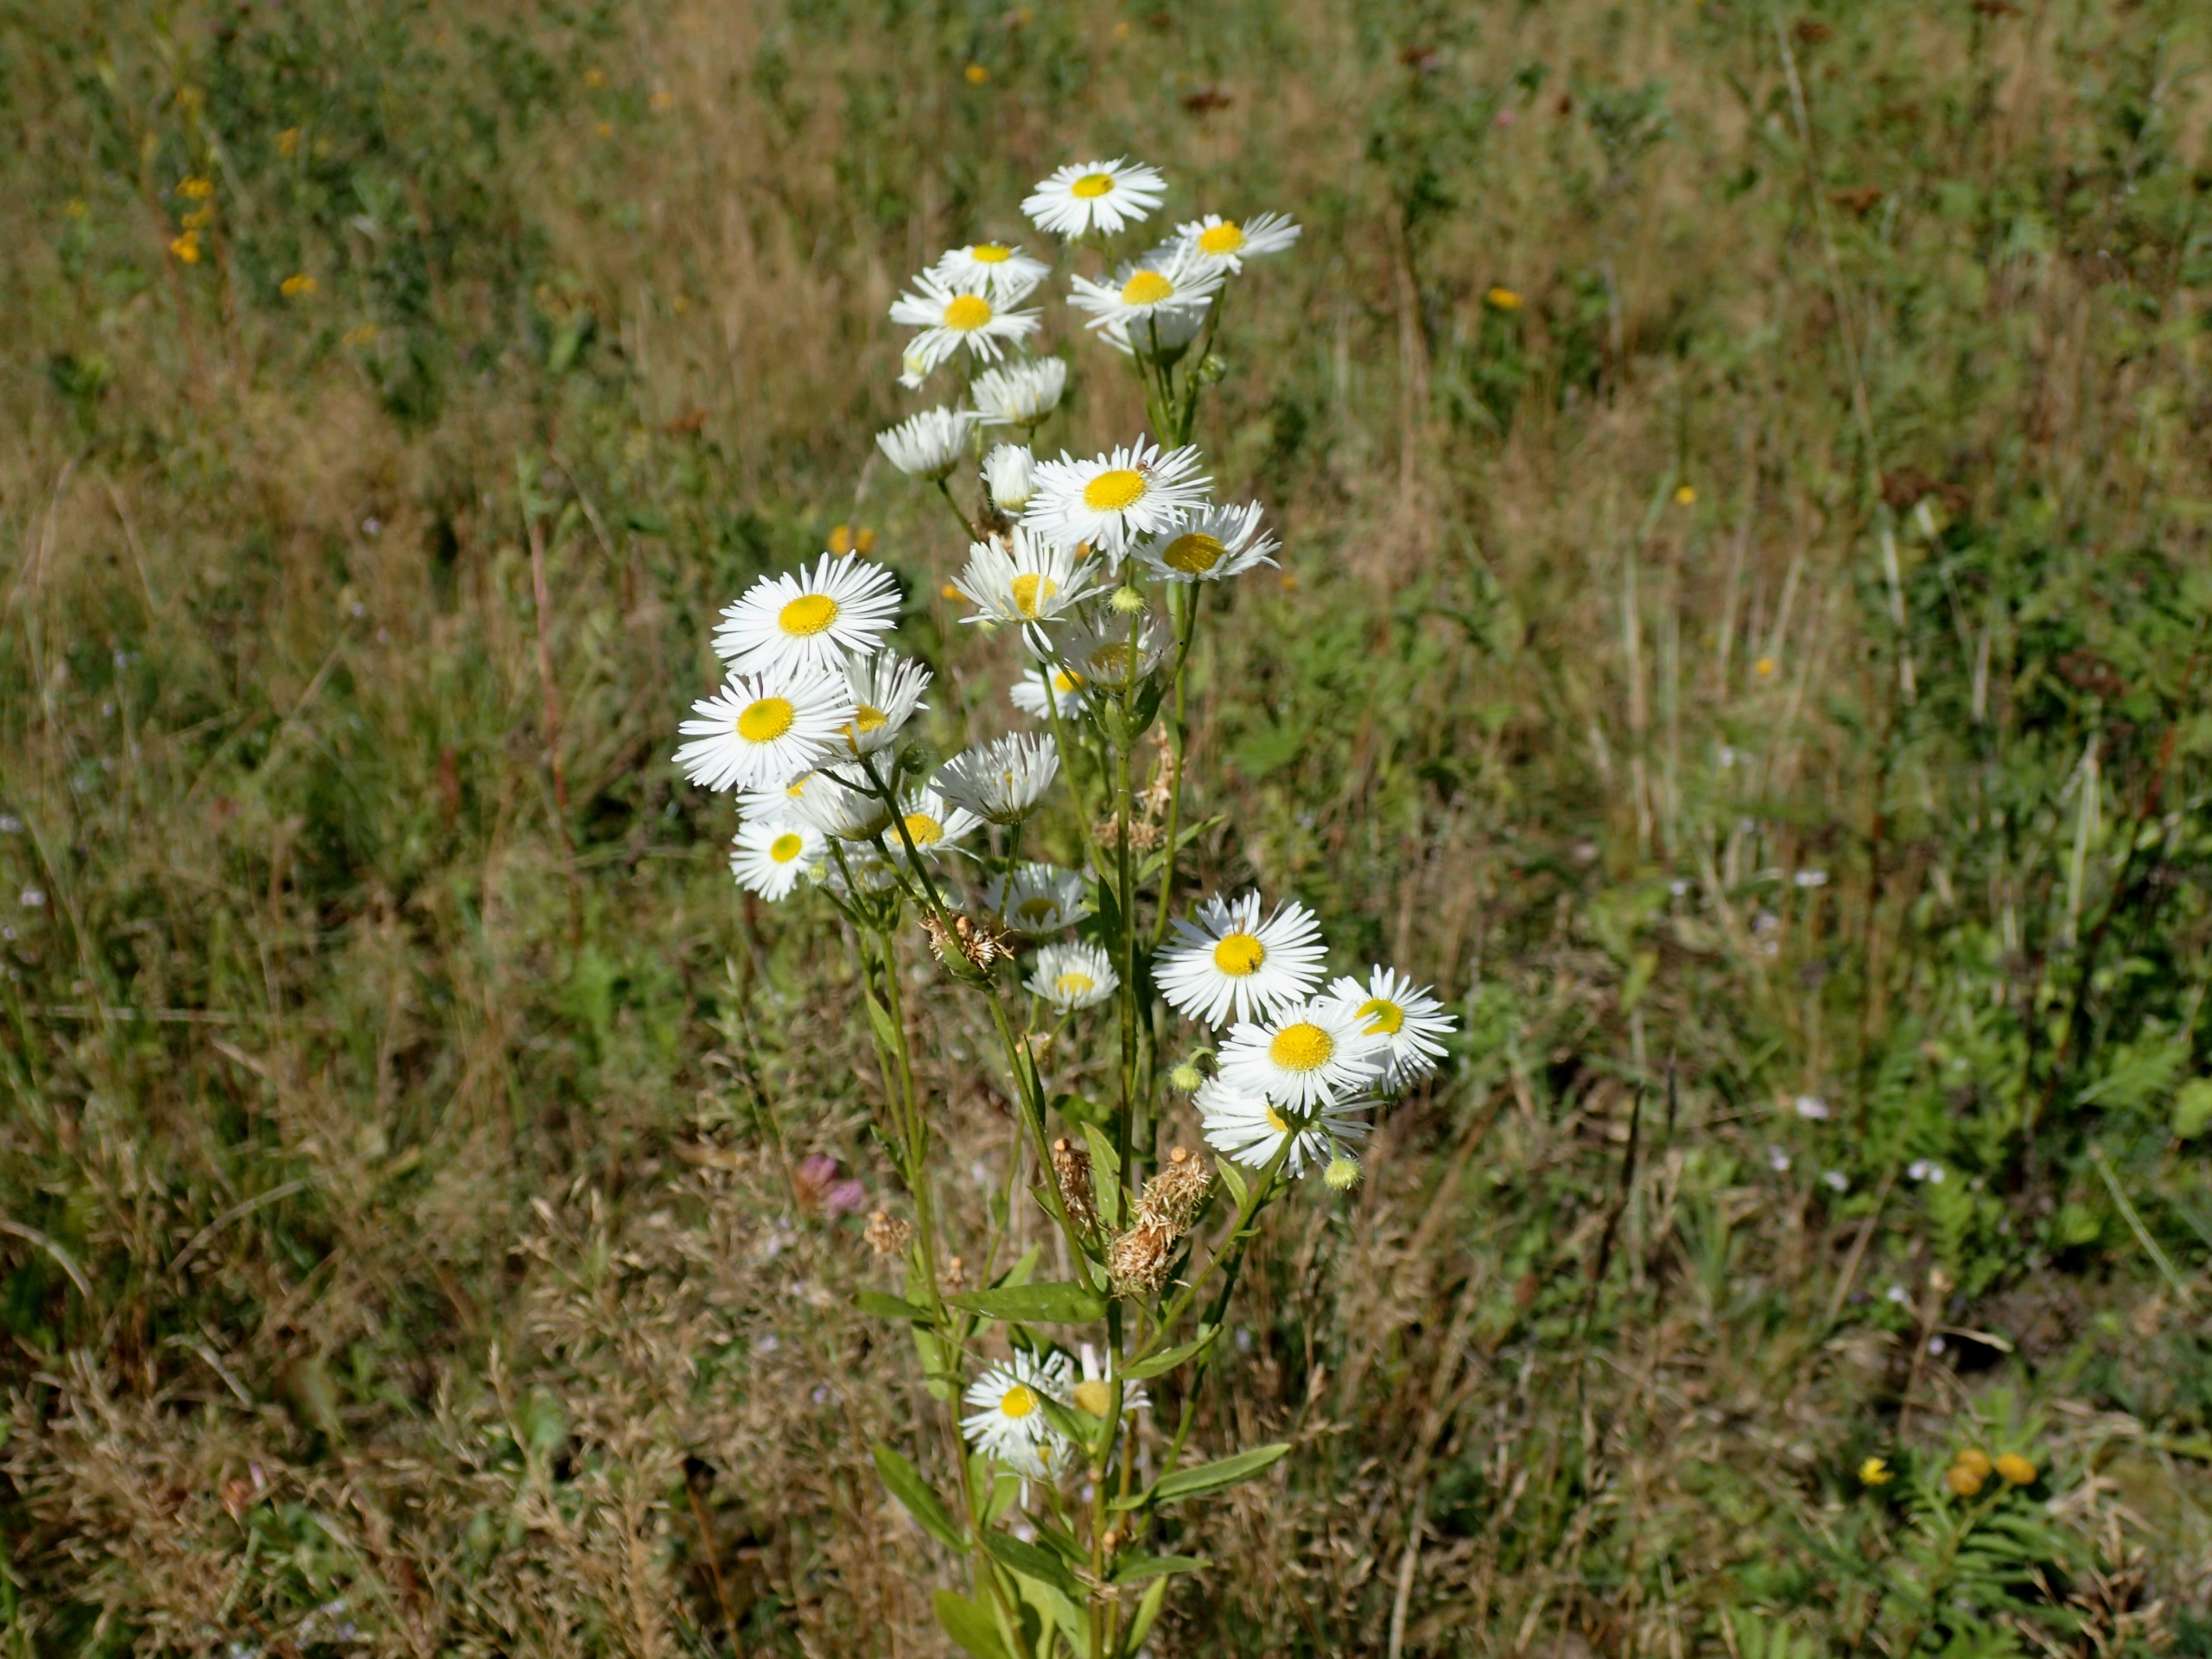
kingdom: Plantae
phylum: Tracheophyta
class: Magnoliopsida
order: Asterales
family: Asteraceae
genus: Erigeron
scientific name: Erigeron annuus
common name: Smalstråle
